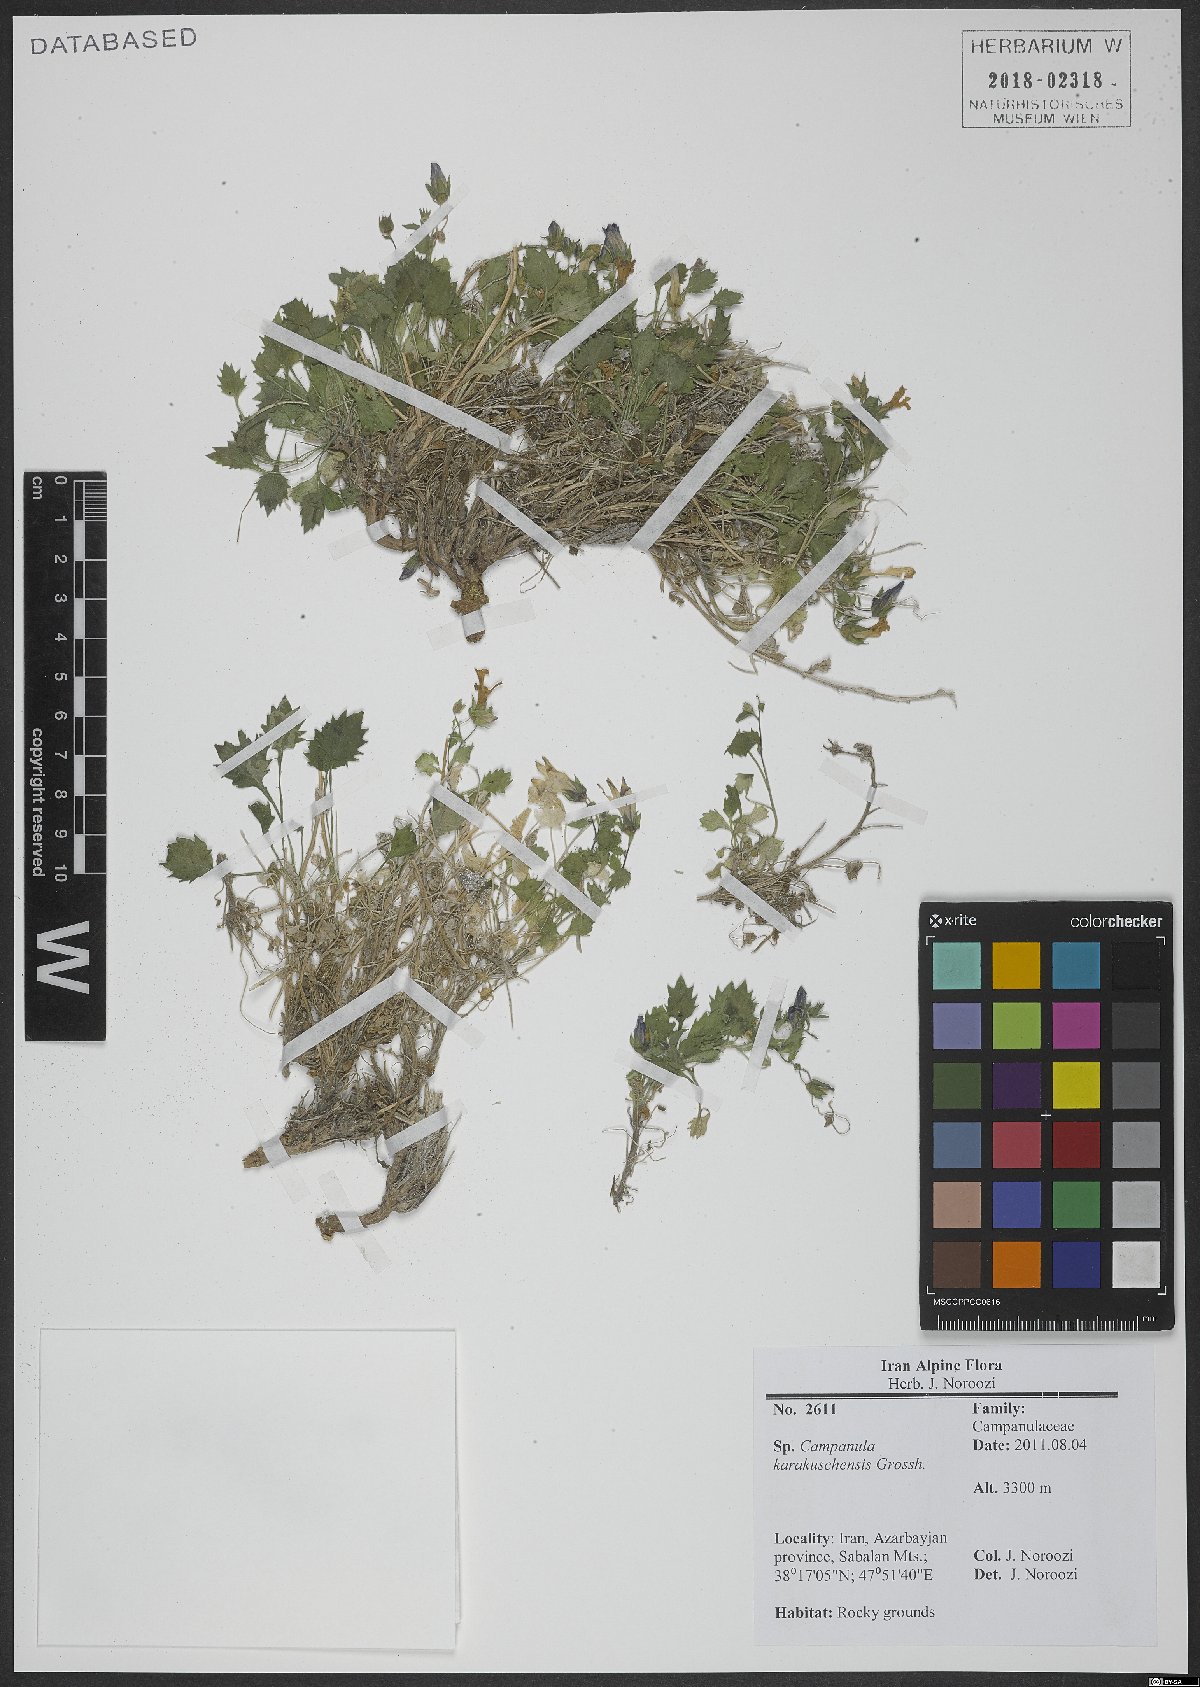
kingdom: Plantae
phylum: Tracheophyta
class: Magnoliopsida
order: Asterales
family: Campanulaceae
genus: Campanula
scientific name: Campanula karakuschensis
